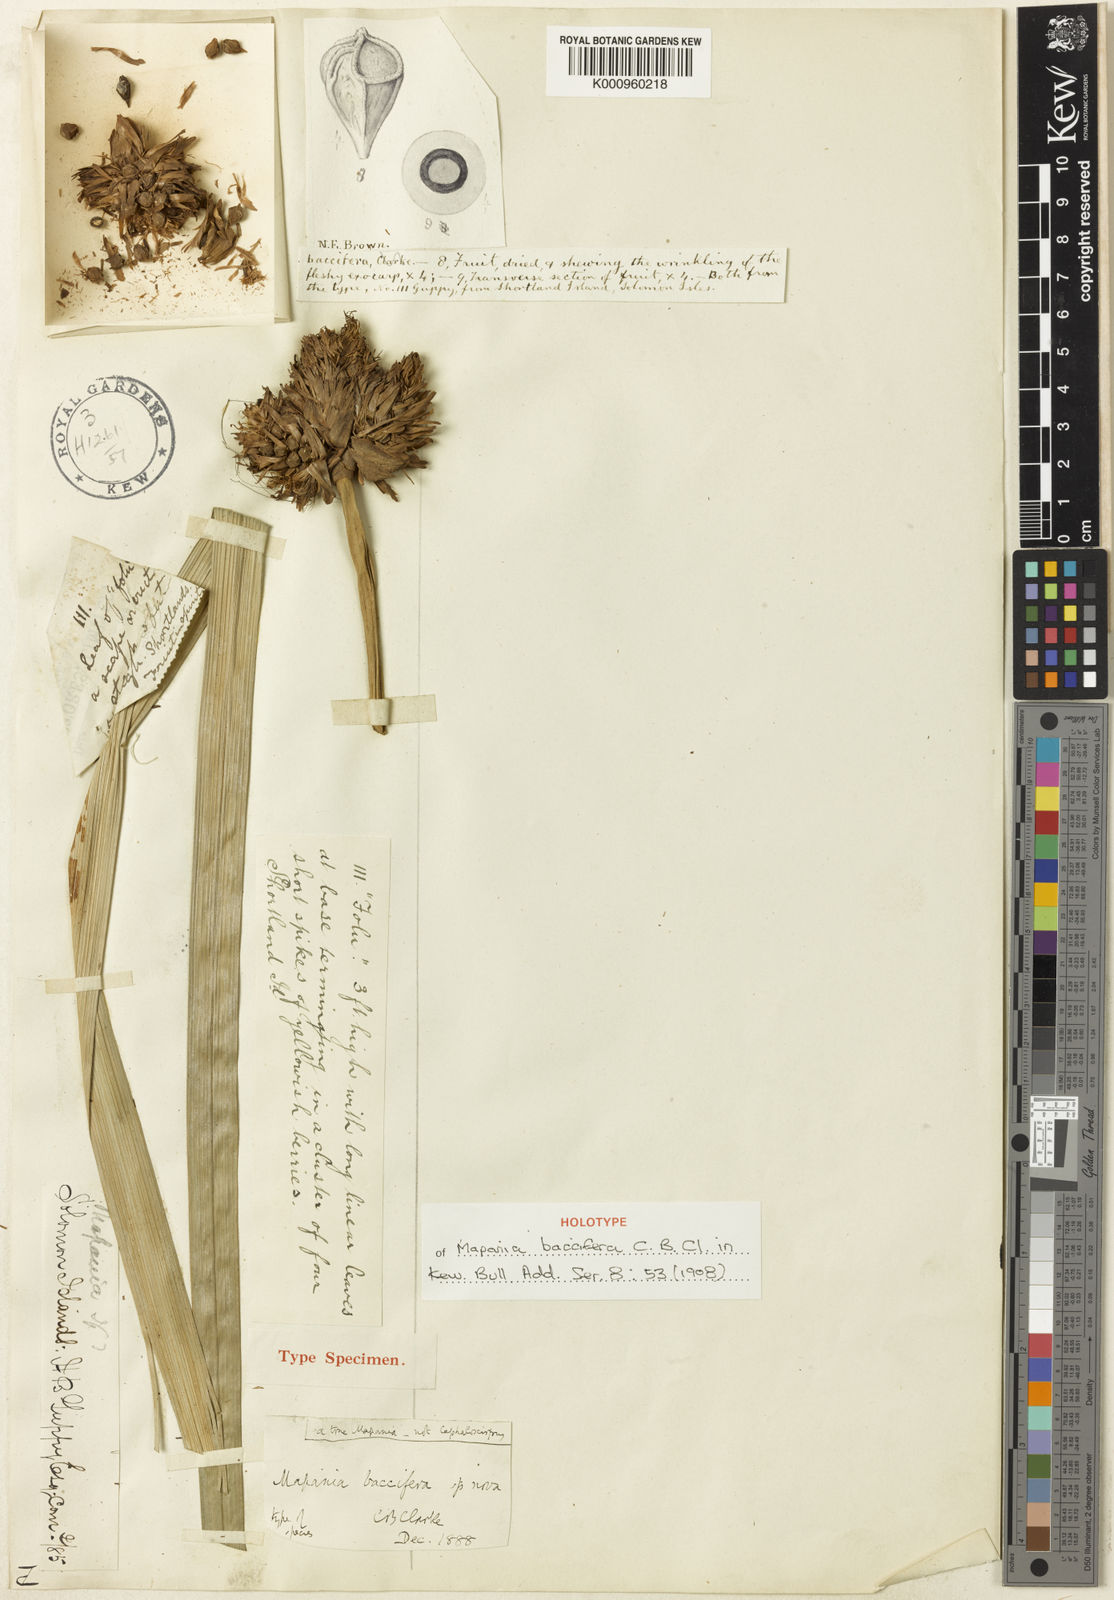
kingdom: Plantae
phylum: Tracheophyta
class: Liliopsida
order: Poales
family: Cyperaceae
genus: Mapania
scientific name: Mapania baccifera
